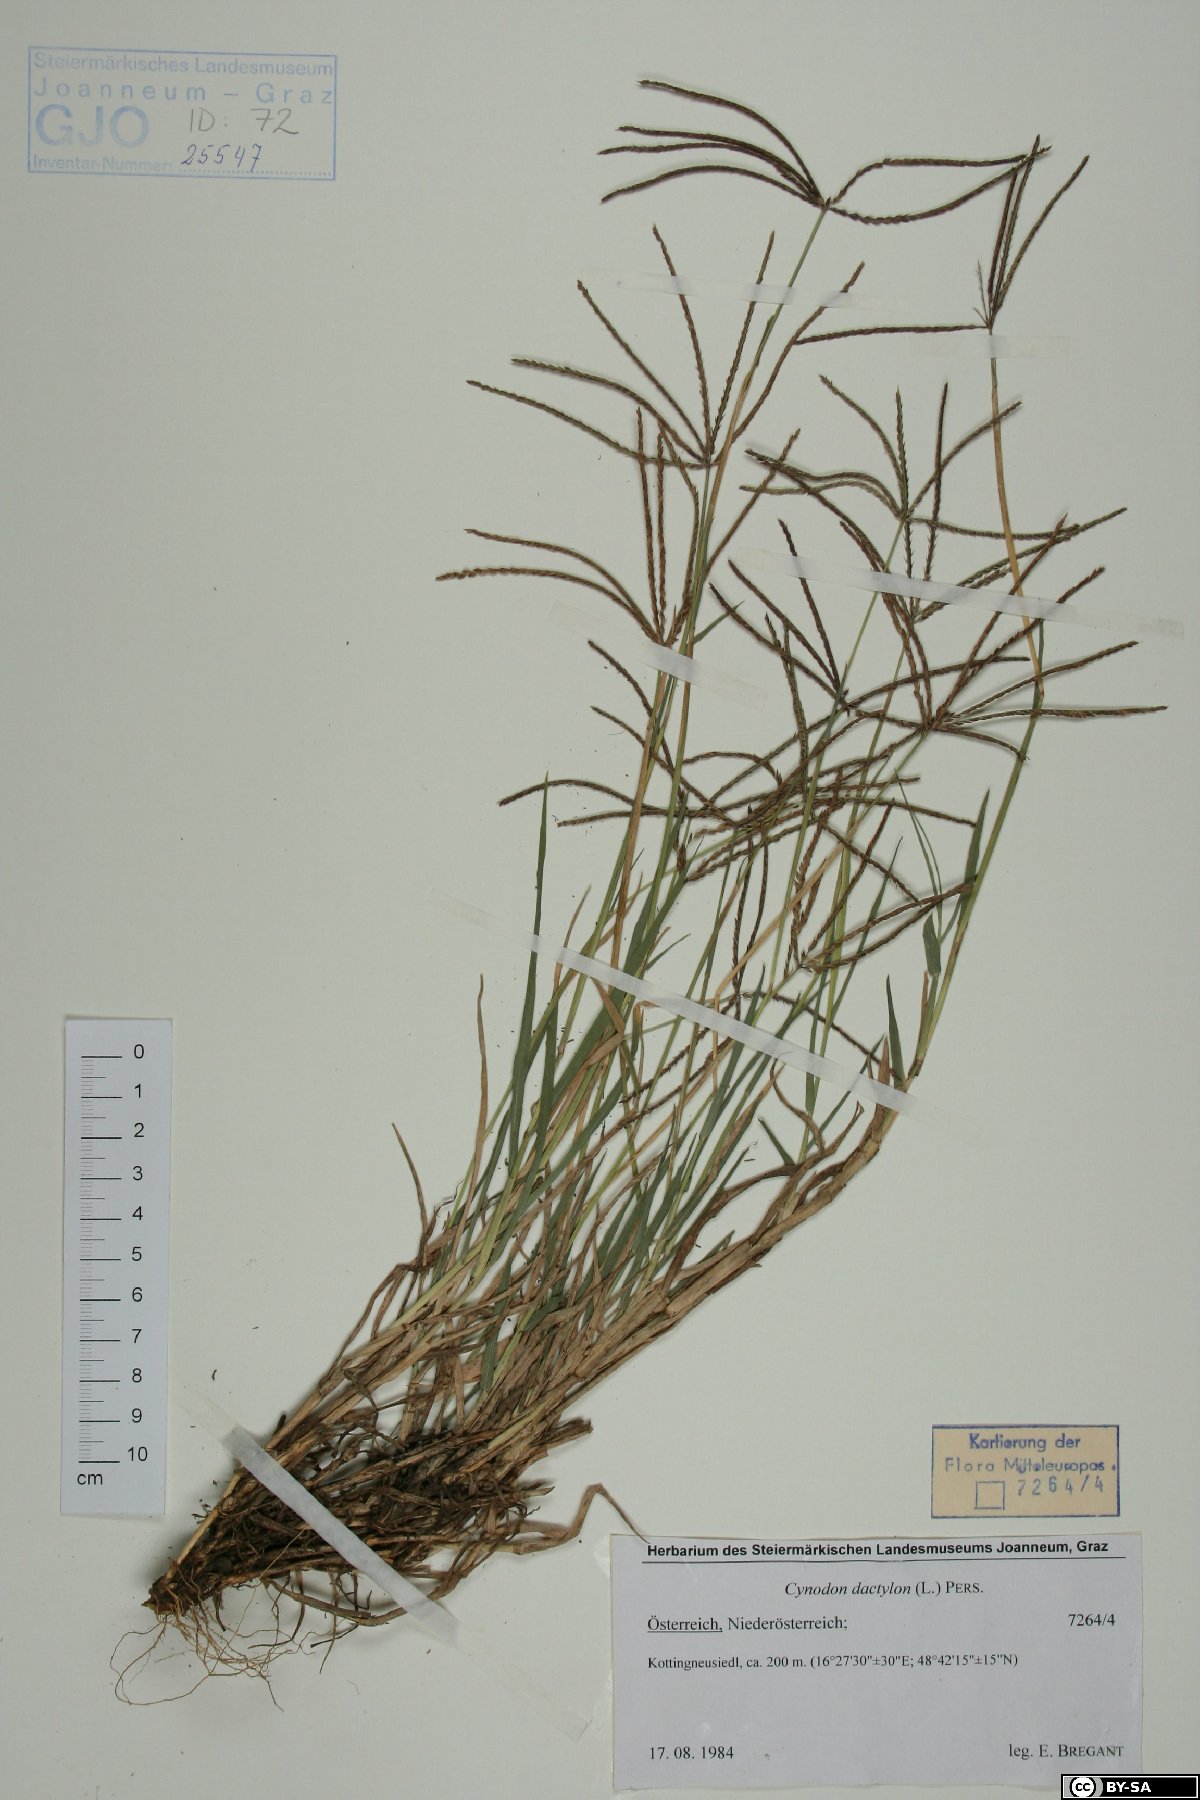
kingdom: Plantae
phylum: Tracheophyta
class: Liliopsida
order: Poales
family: Poaceae
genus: Cynodon
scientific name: Cynodon dactylon
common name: Bermuda grass
